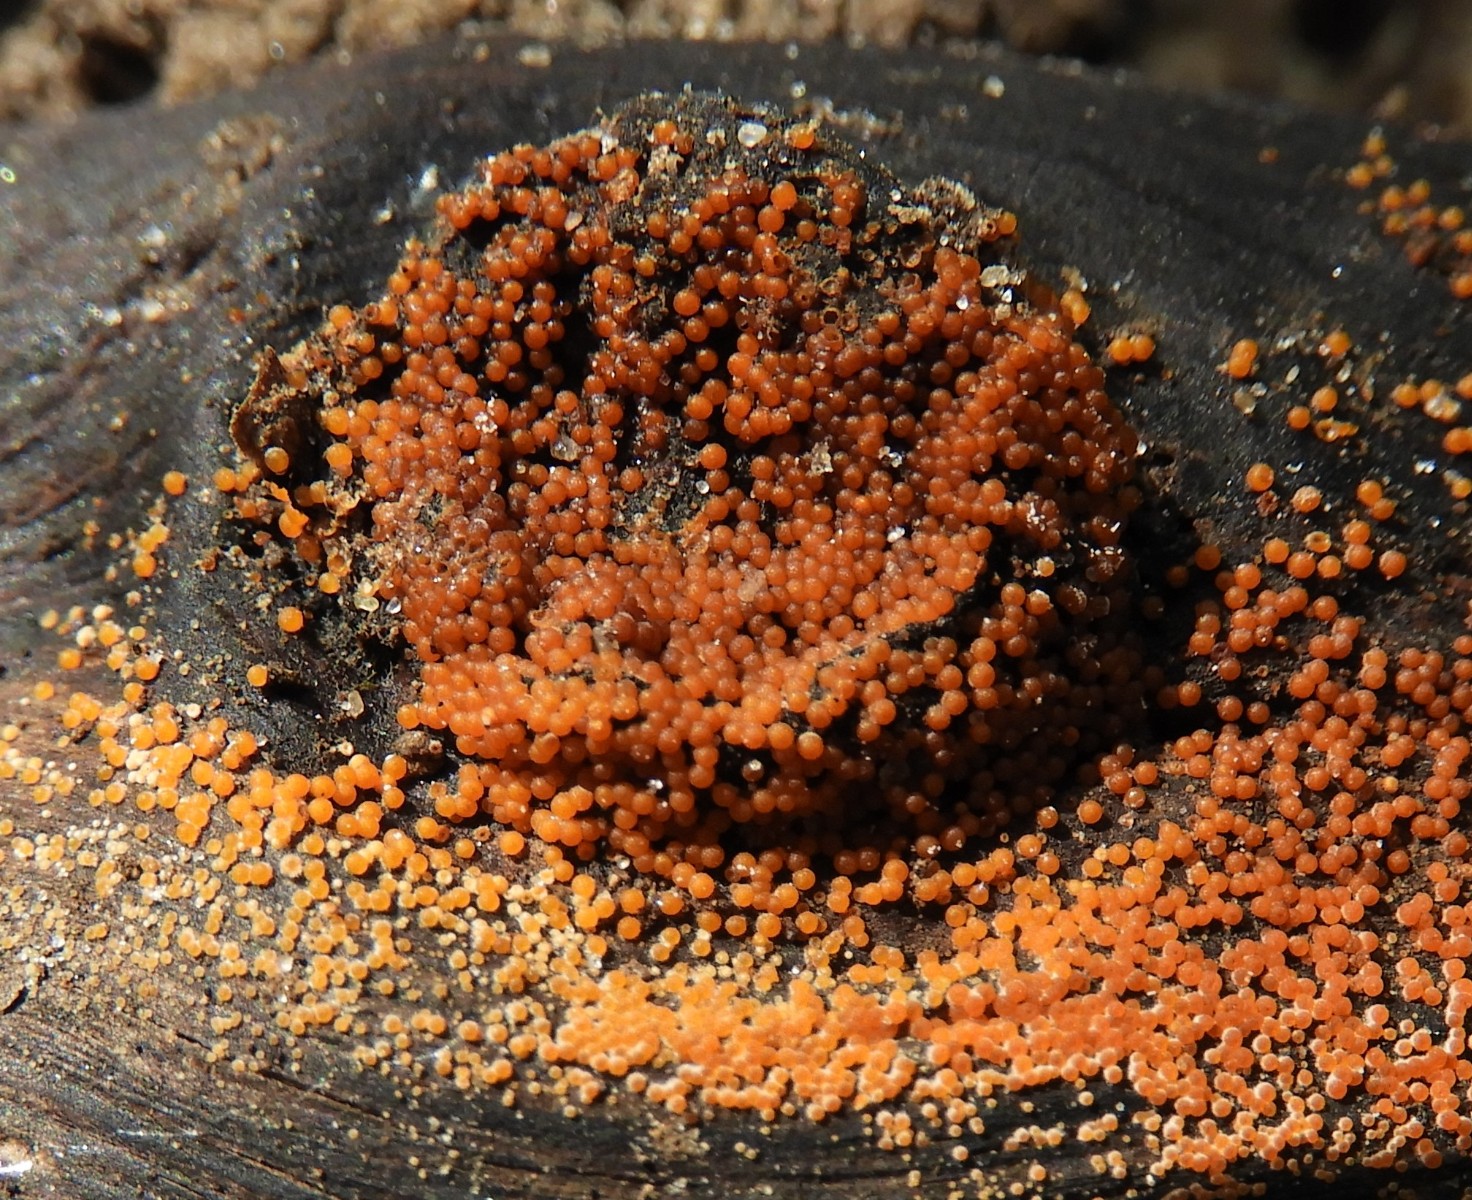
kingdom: Fungi
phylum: Ascomycota
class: Sordariomycetes
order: Hypocreales
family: Nectriaceae
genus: Hydropisphaera
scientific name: Hydropisphaera peziza
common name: skålformet gyldenkerne
